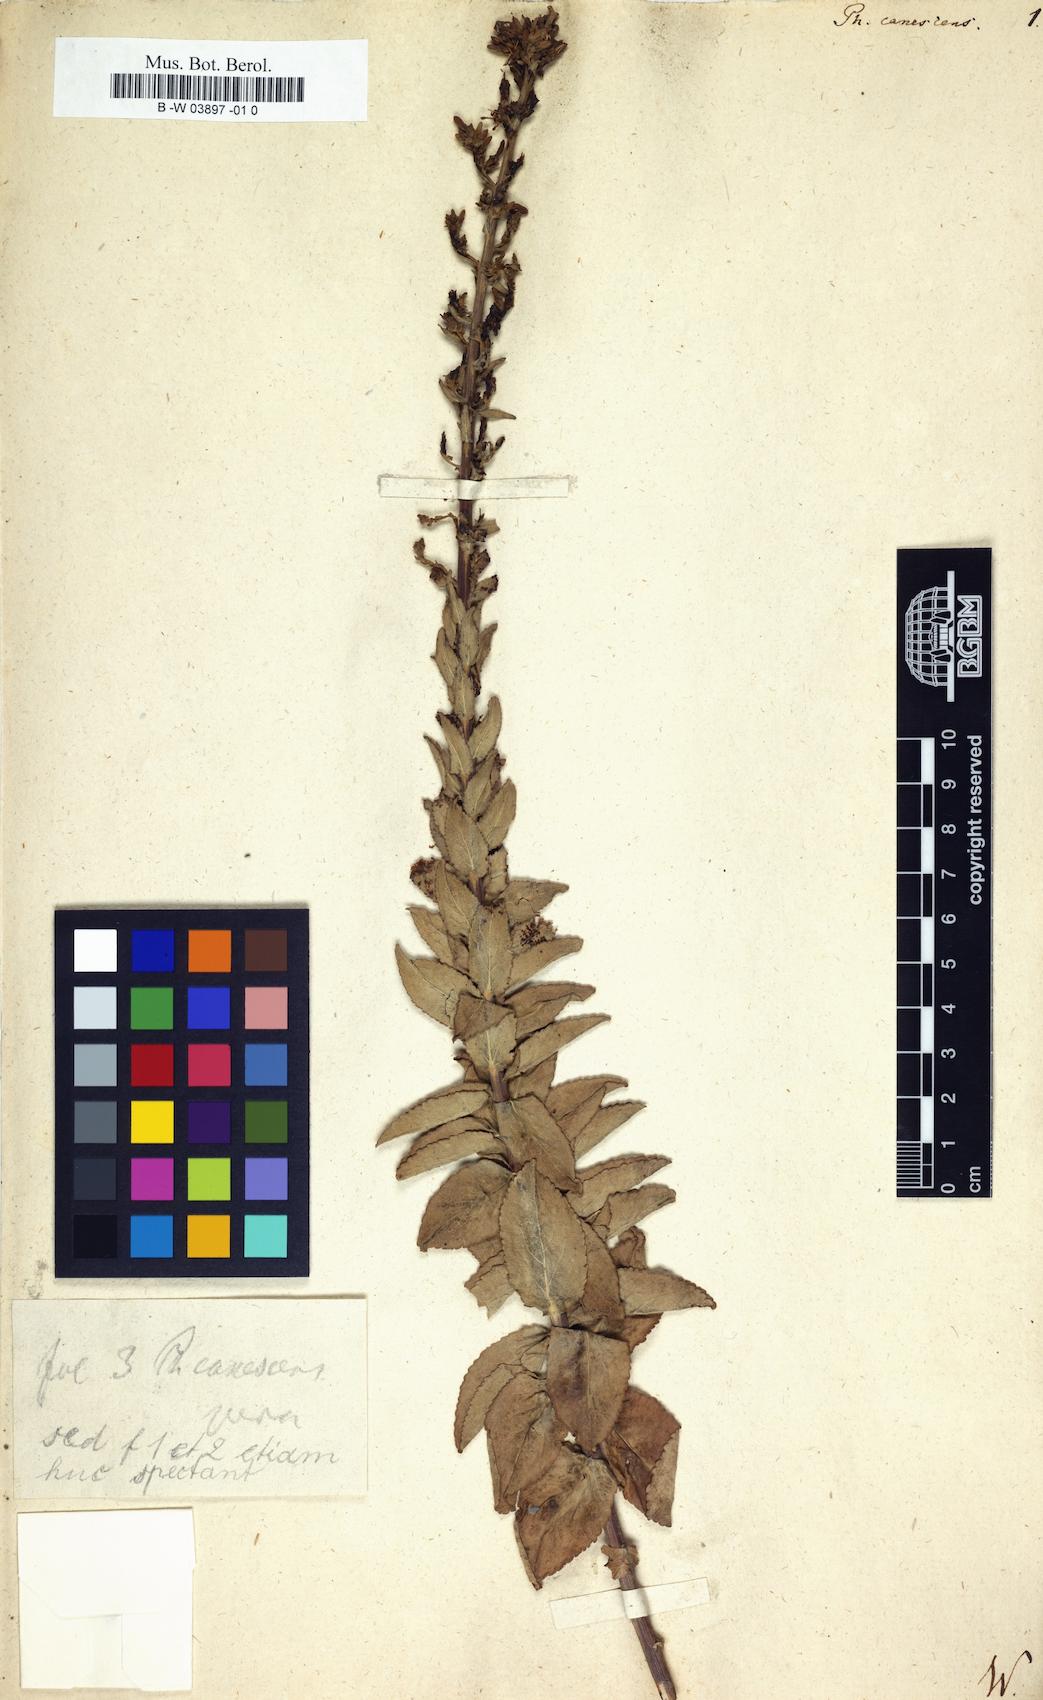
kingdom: Plantae
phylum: Tracheophyta
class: Magnoliopsida
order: Asterales
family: Campanulaceae
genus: Asyneuma
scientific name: Asyneuma canescens
